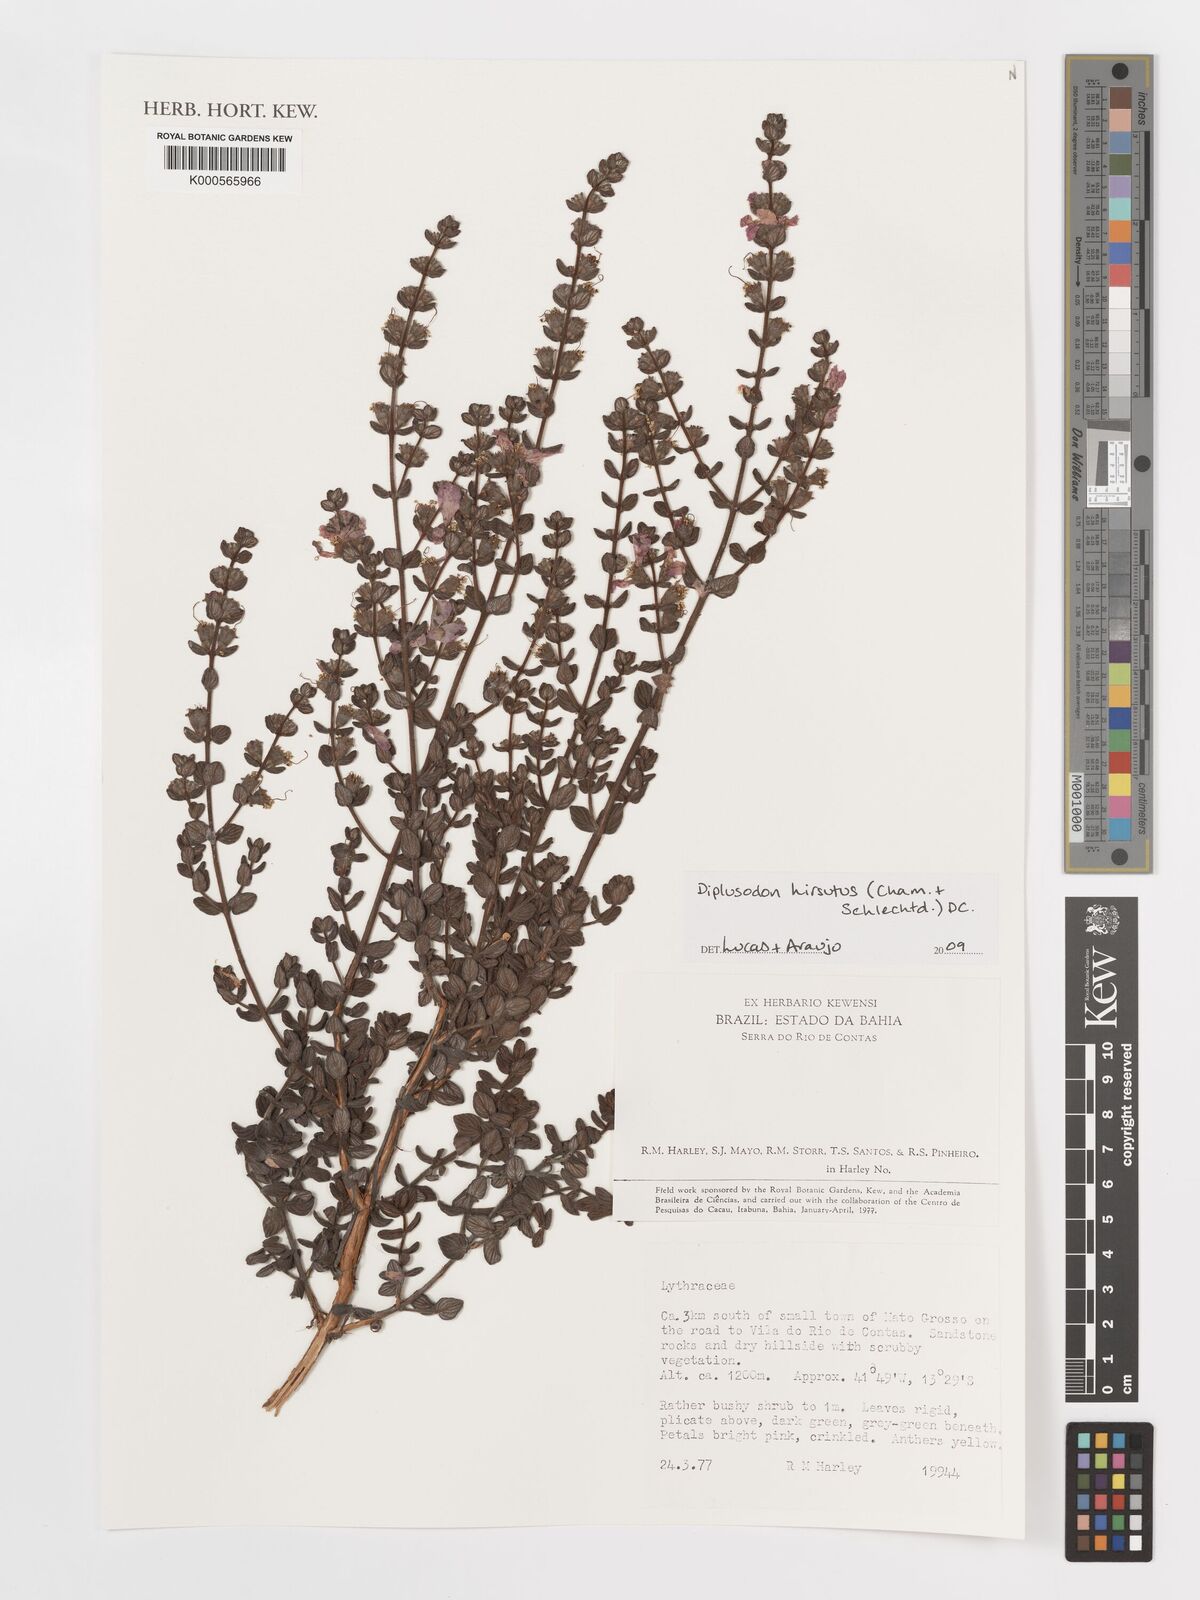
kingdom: Plantae
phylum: Tracheophyta
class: Magnoliopsida
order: Myrtales
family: Lythraceae
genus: Diplusodon
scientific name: Diplusodon hirsutus
